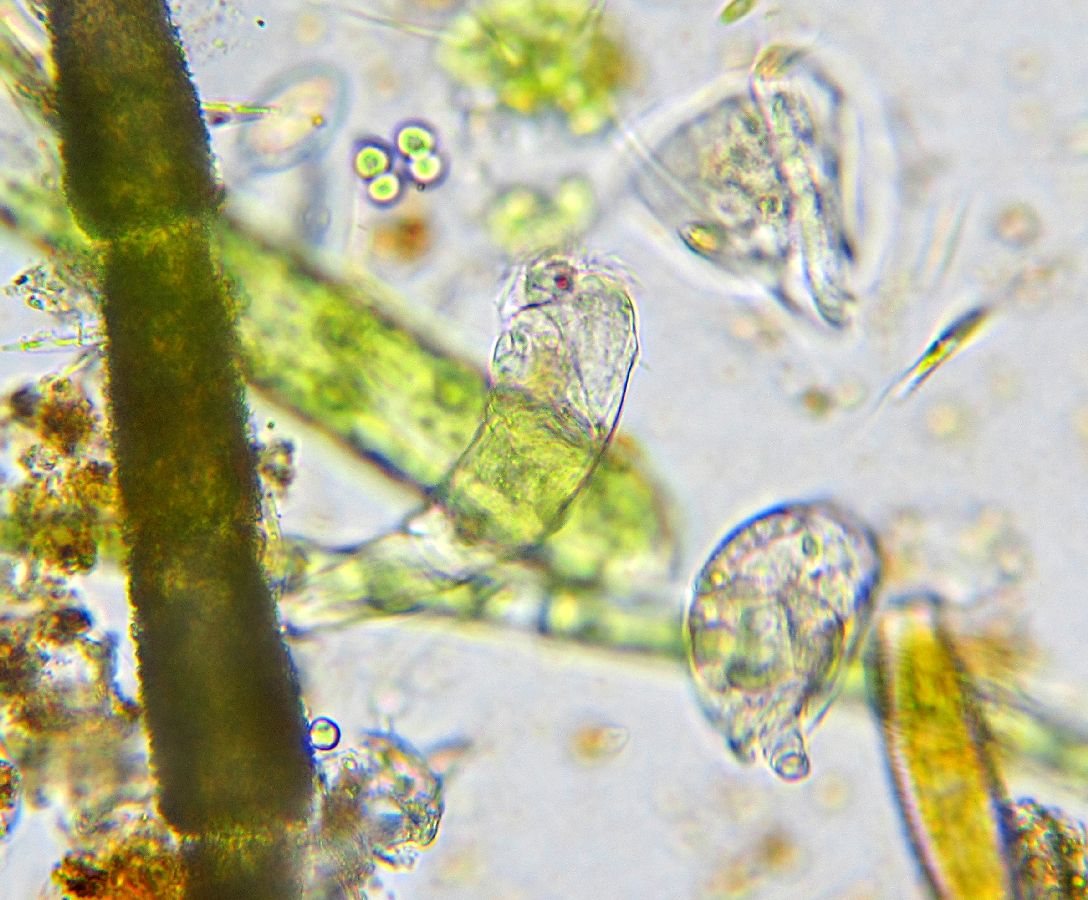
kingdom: Animalia
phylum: Rotifera
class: Eurotatoria
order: Collothecacea
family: Collothecidae
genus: Collotheca
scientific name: Collotheca ornata
